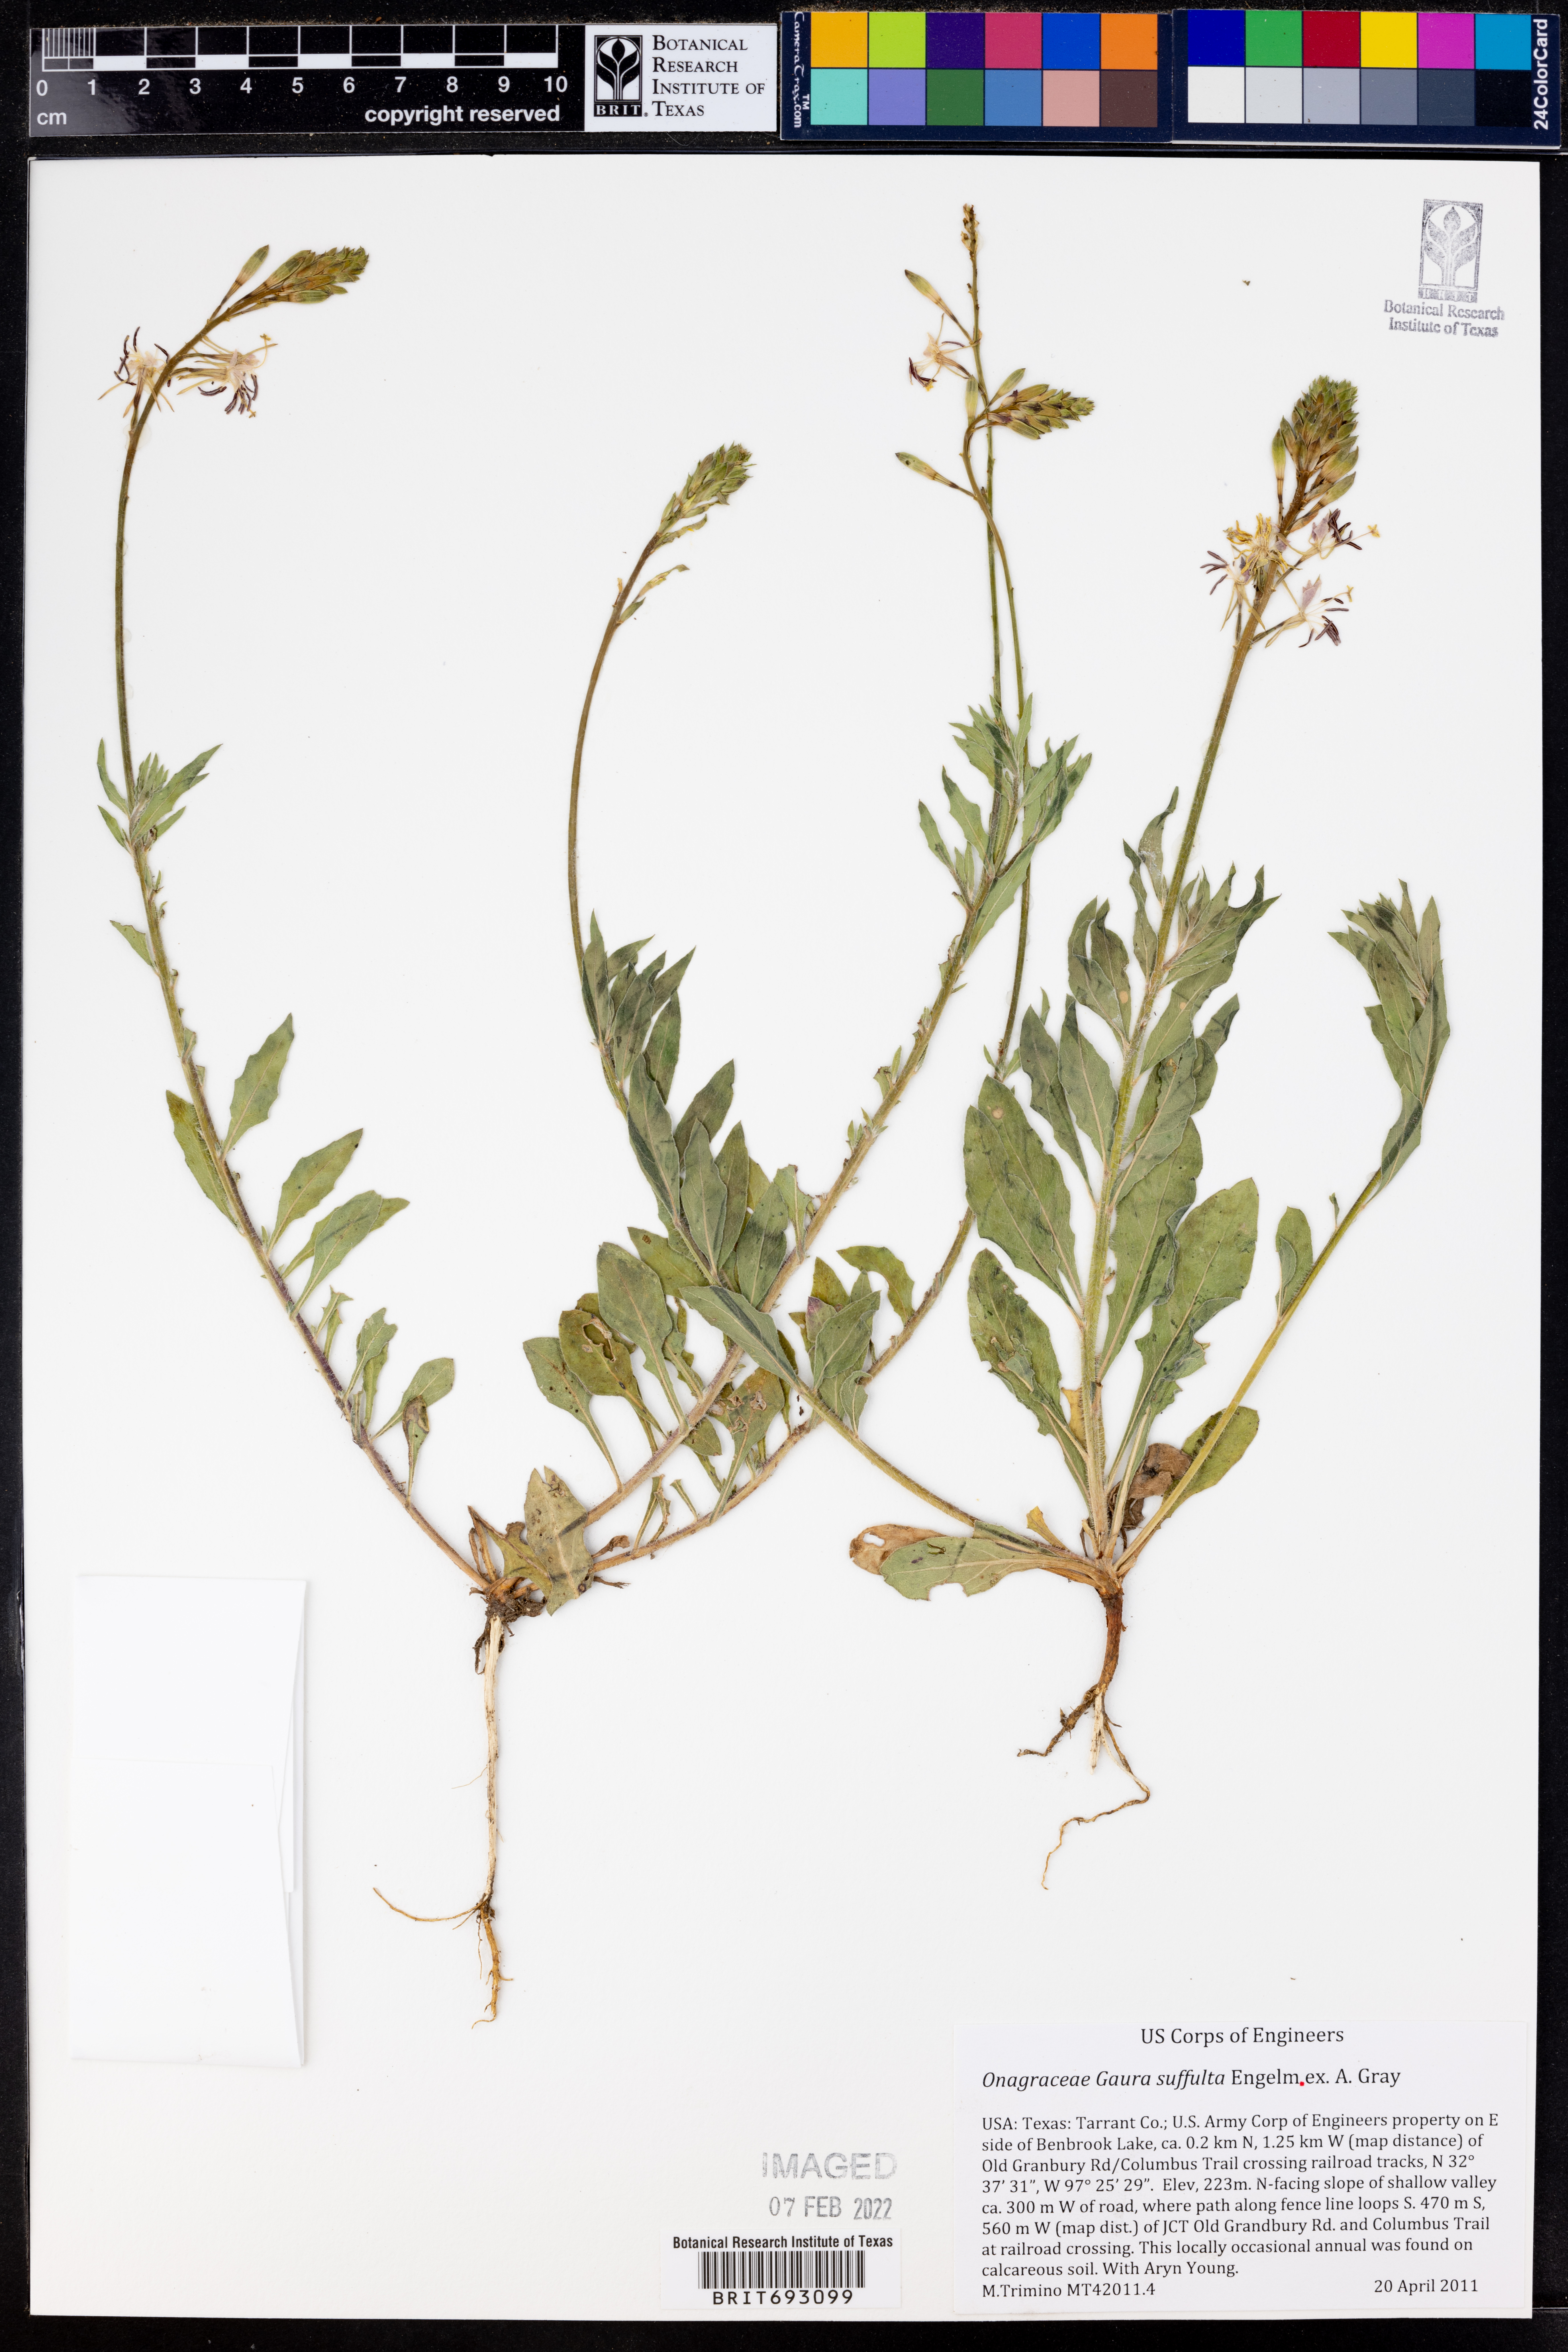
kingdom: Plantae
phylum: Tracheophyta
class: Magnoliopsida
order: Myrtales
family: Onagraceae
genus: Oenothera
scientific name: Oenothera Gaura suffulta
